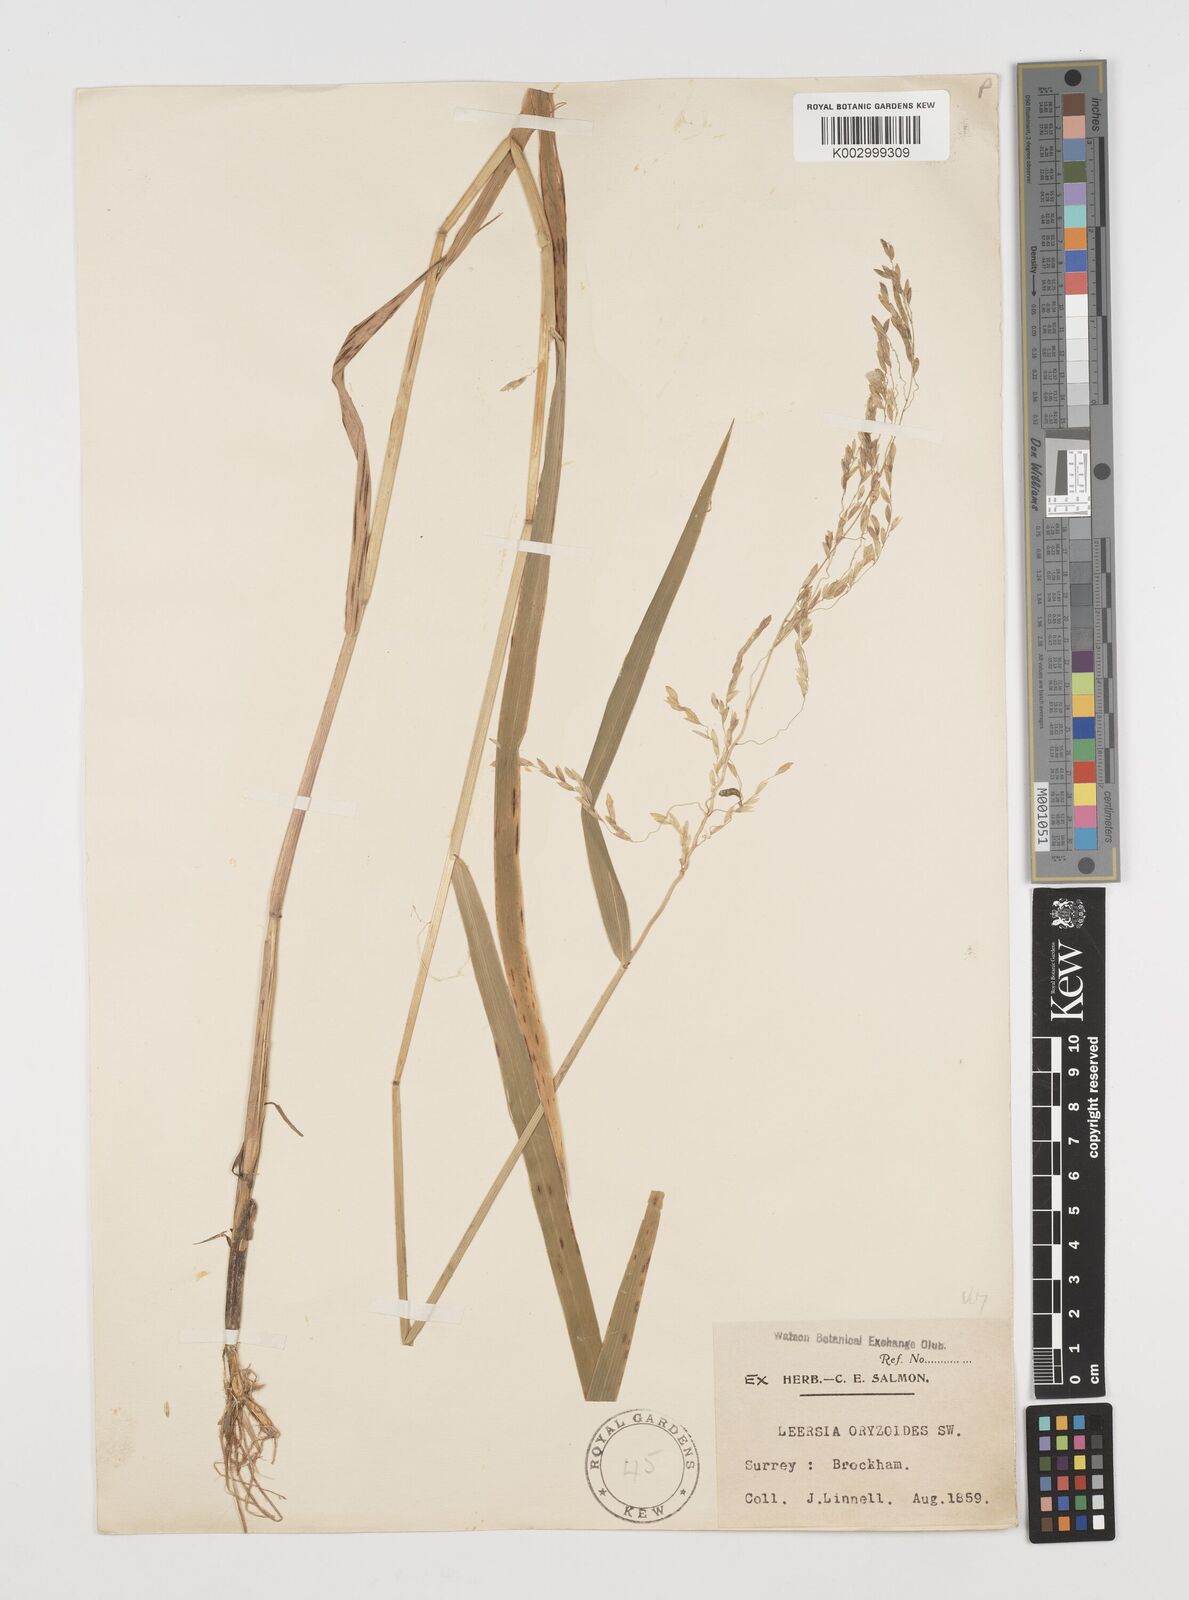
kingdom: Plantae
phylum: Tracheophyta
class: Liliopsida
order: Poales
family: Poaceae
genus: Leersia
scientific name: Leersia oryzoides
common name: Cut-grass
